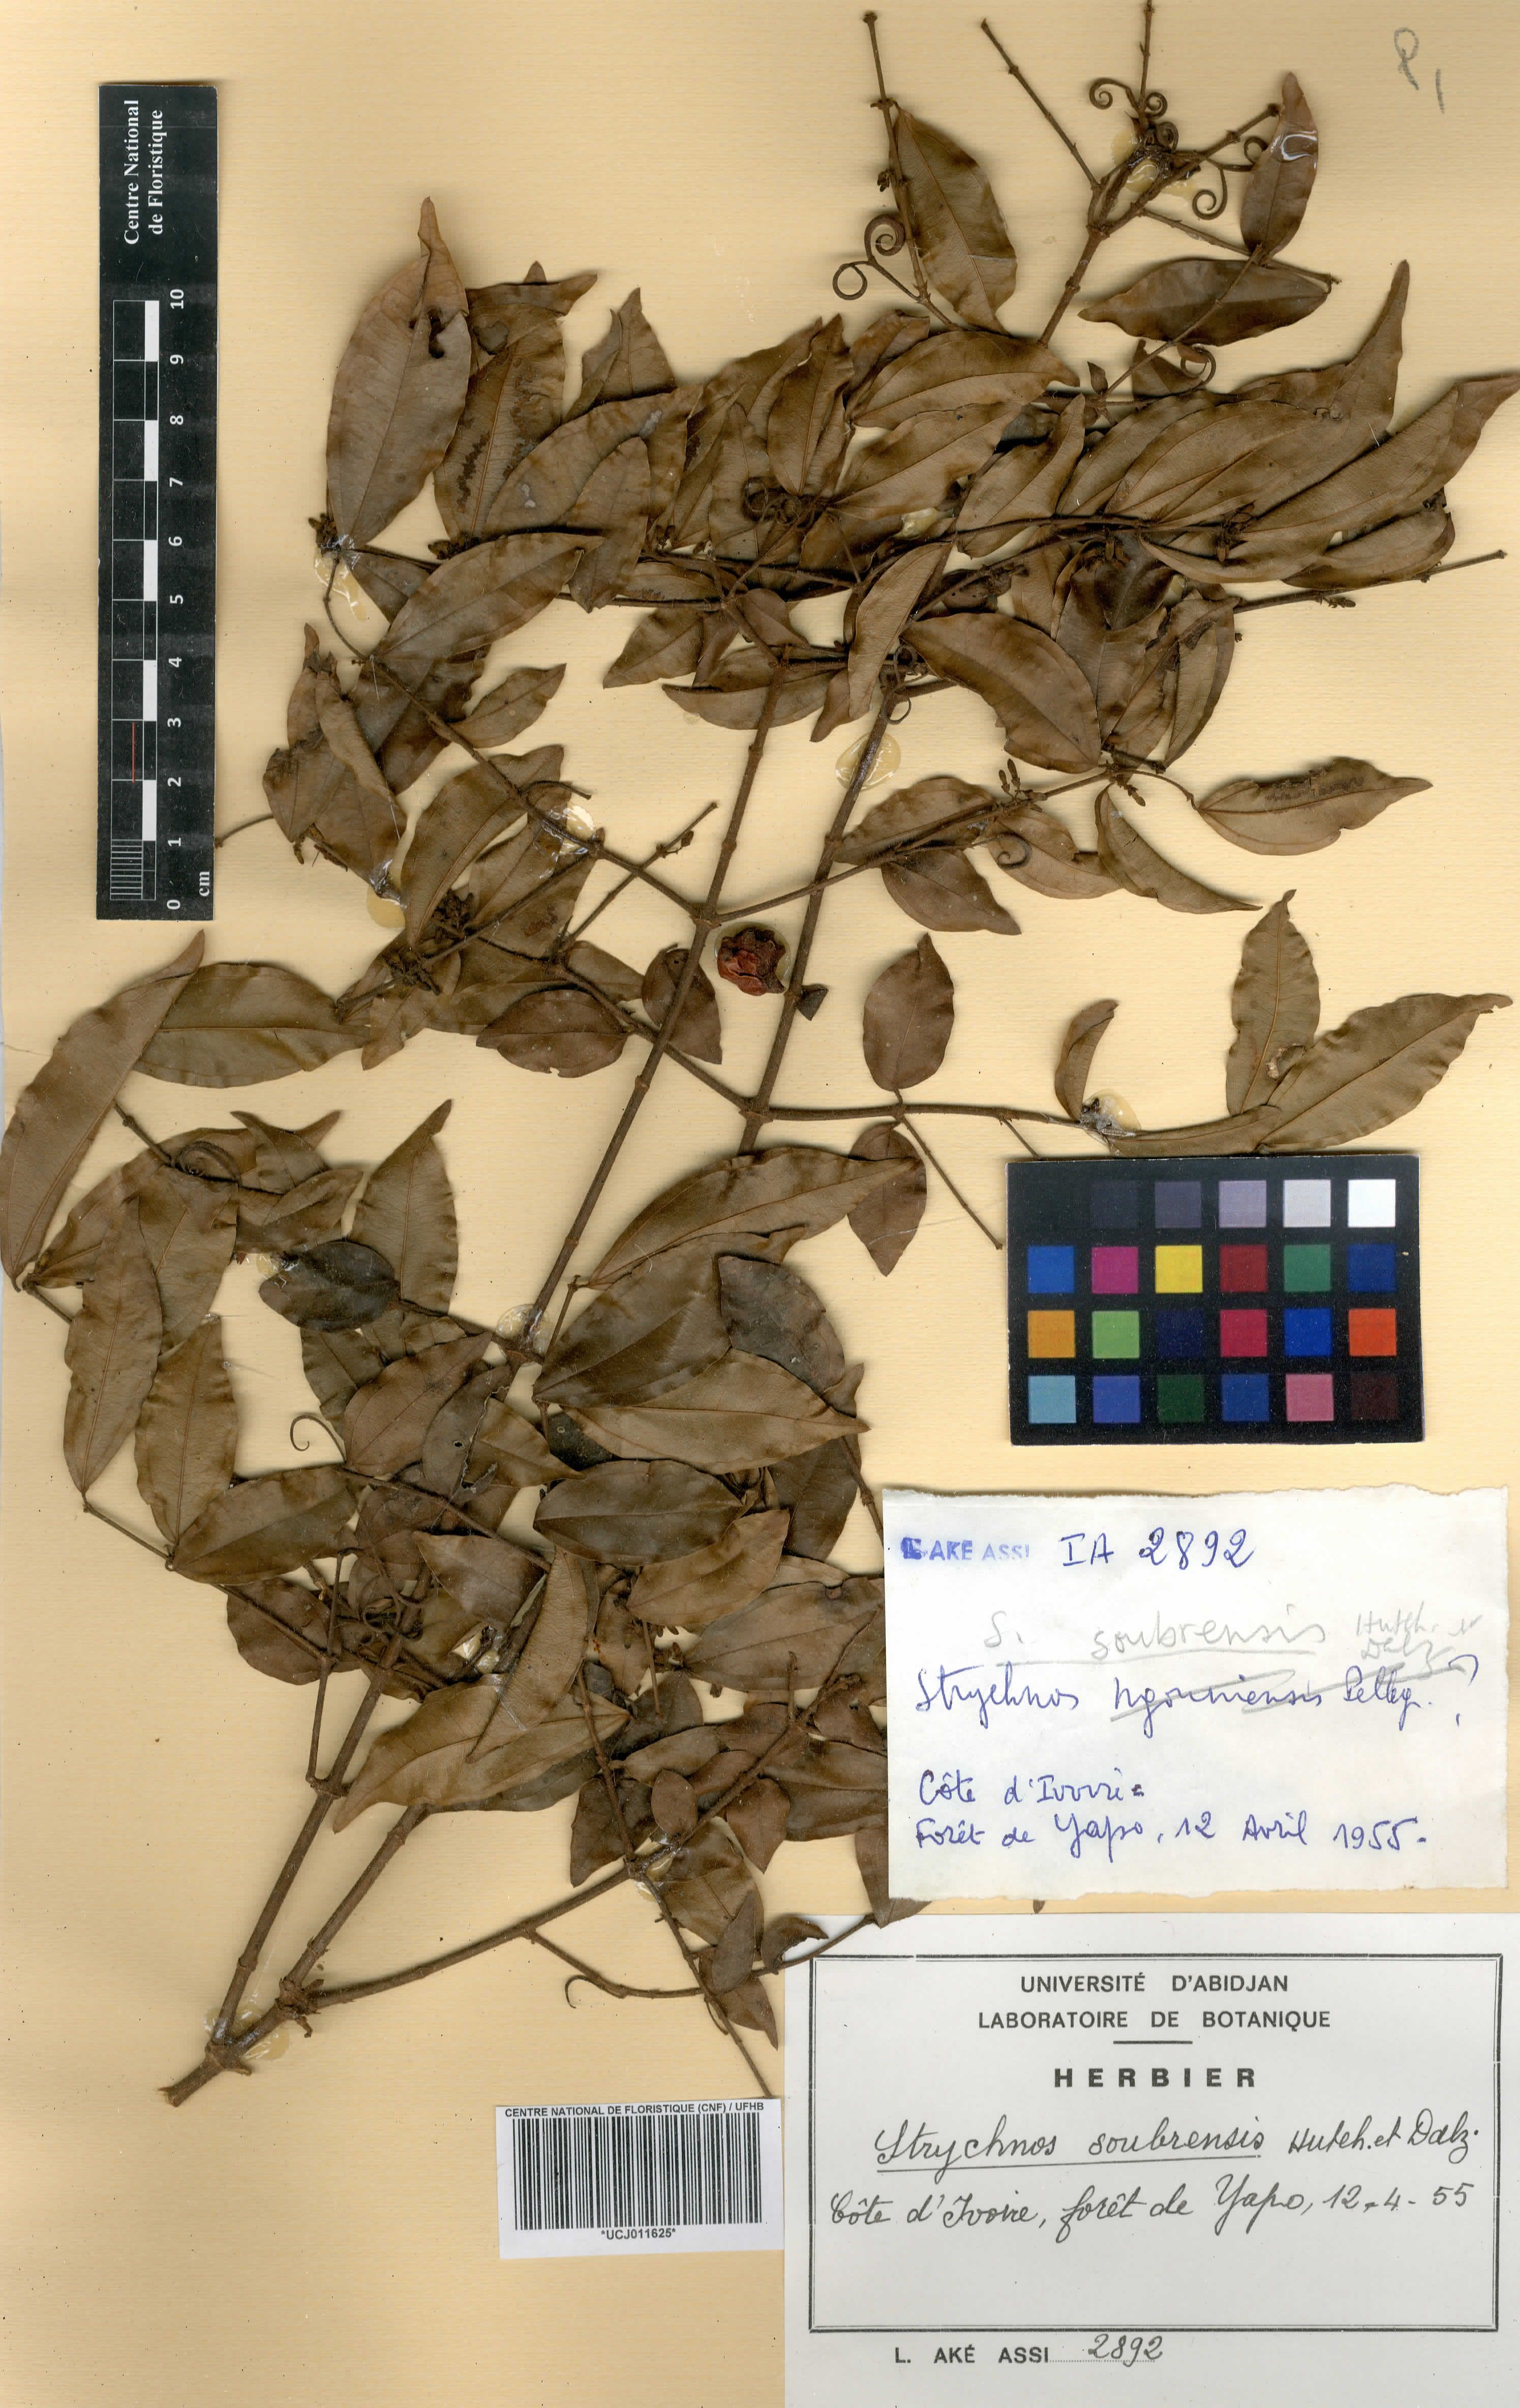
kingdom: Plantae
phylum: Tracheophyta
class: Magnoliopsida
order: Gentianales
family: Loganiaceae
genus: Strychnos
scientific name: Strychnos soubrensis
